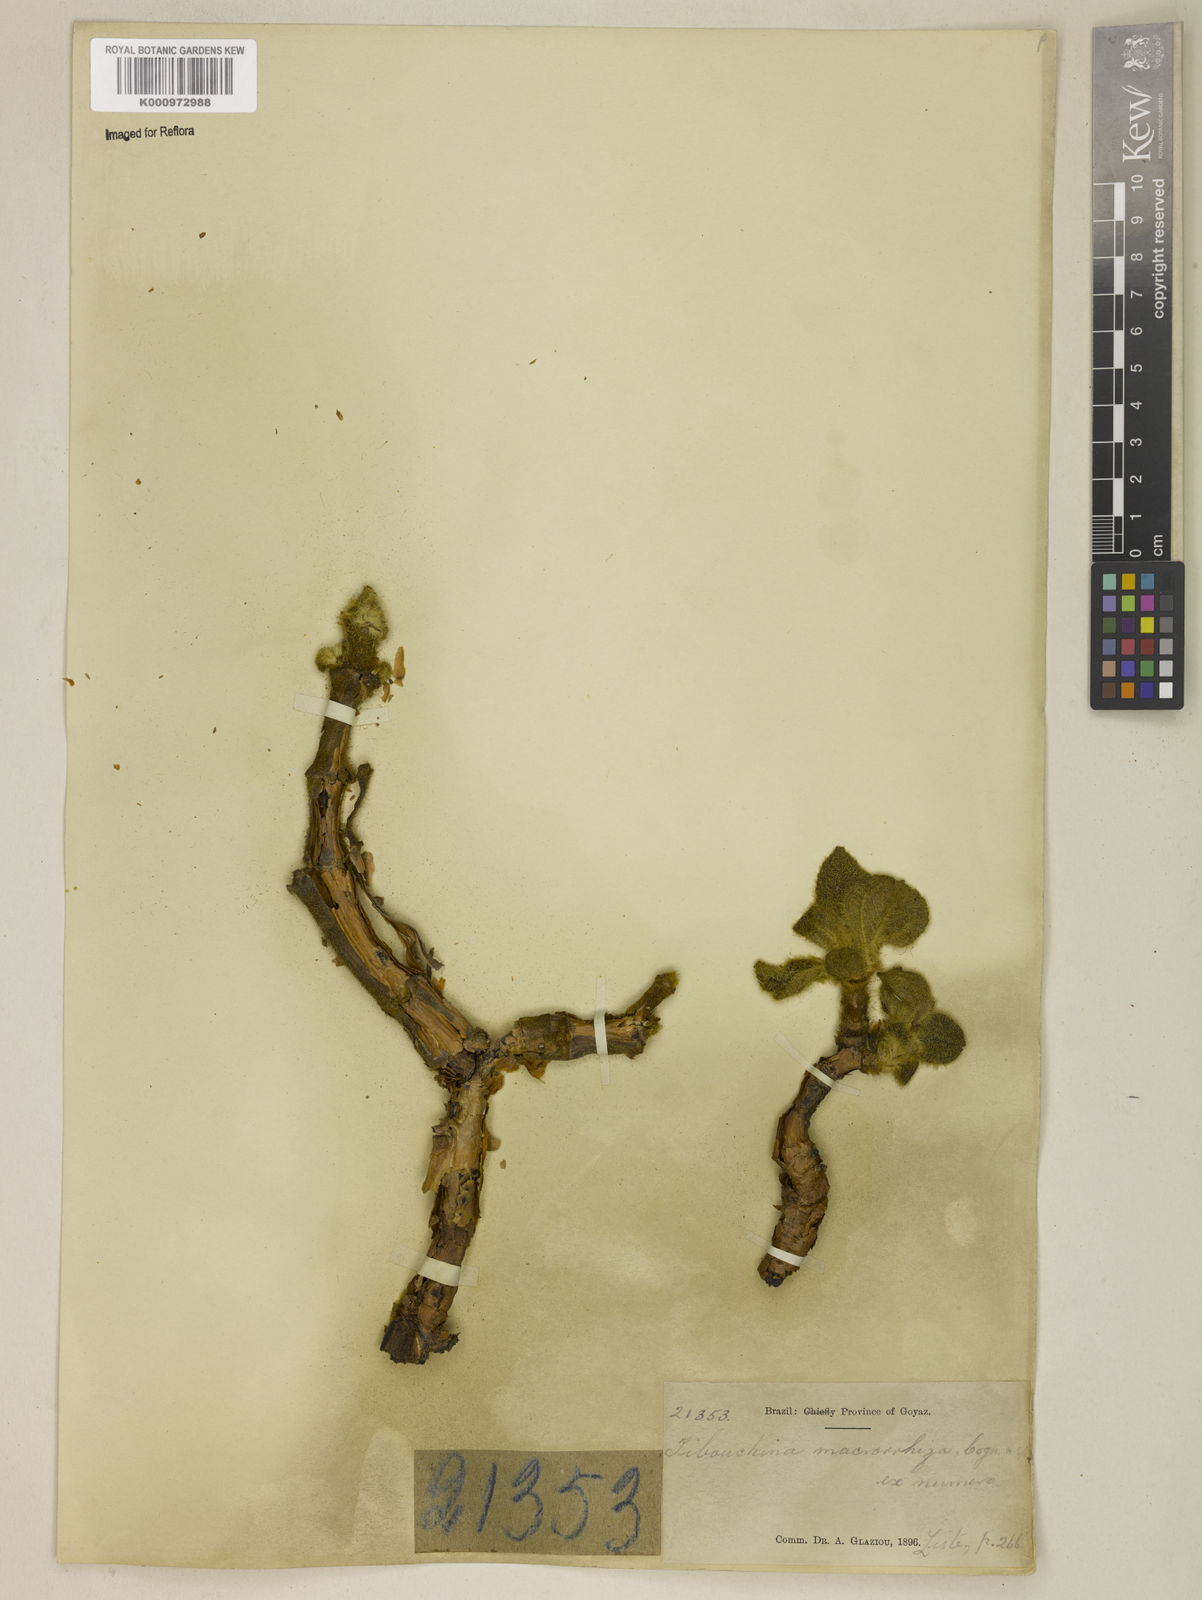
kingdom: Plantae
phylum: Tracheophyta
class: Magnoliopsida
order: Myrtales
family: Melastomataceae
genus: Tibouchina
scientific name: Tibouchina macrorrhiza
